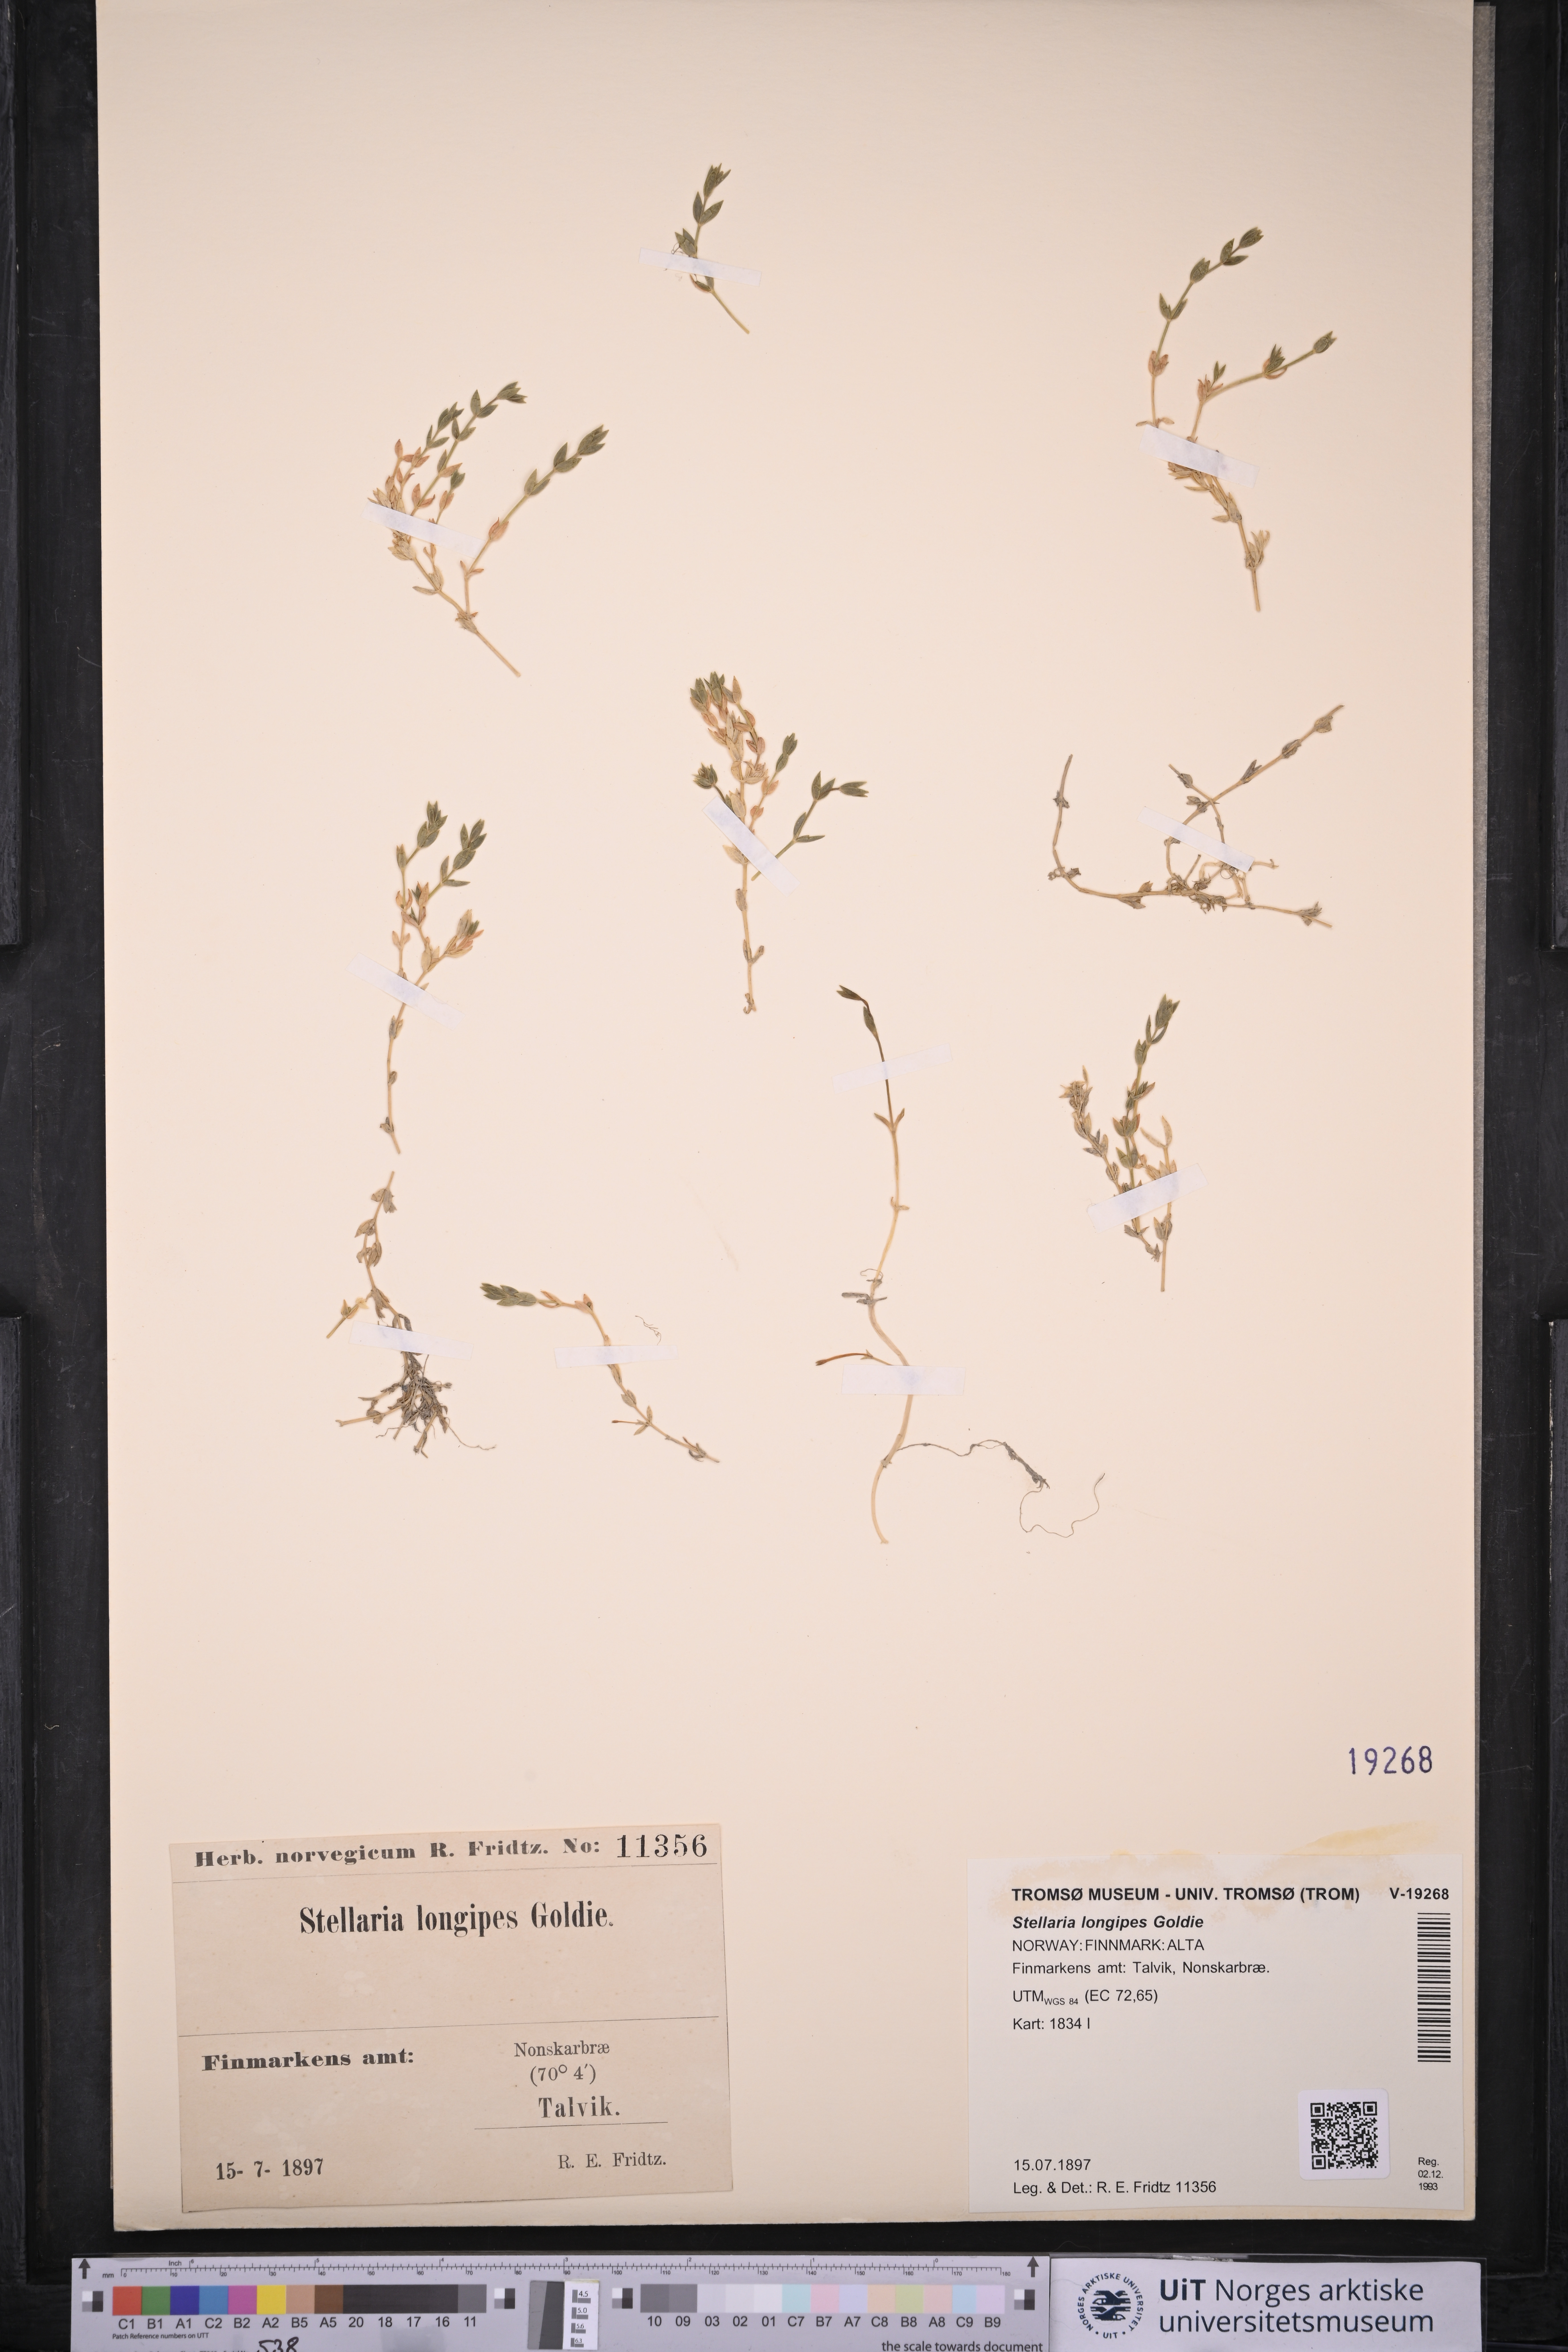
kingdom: Plantae
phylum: Tracheophyta
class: Magnoliopsida
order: Caryophyllales
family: Caryophyllaceae
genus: Stellaria
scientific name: Stellaria longipes
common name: Goldie's starwort
